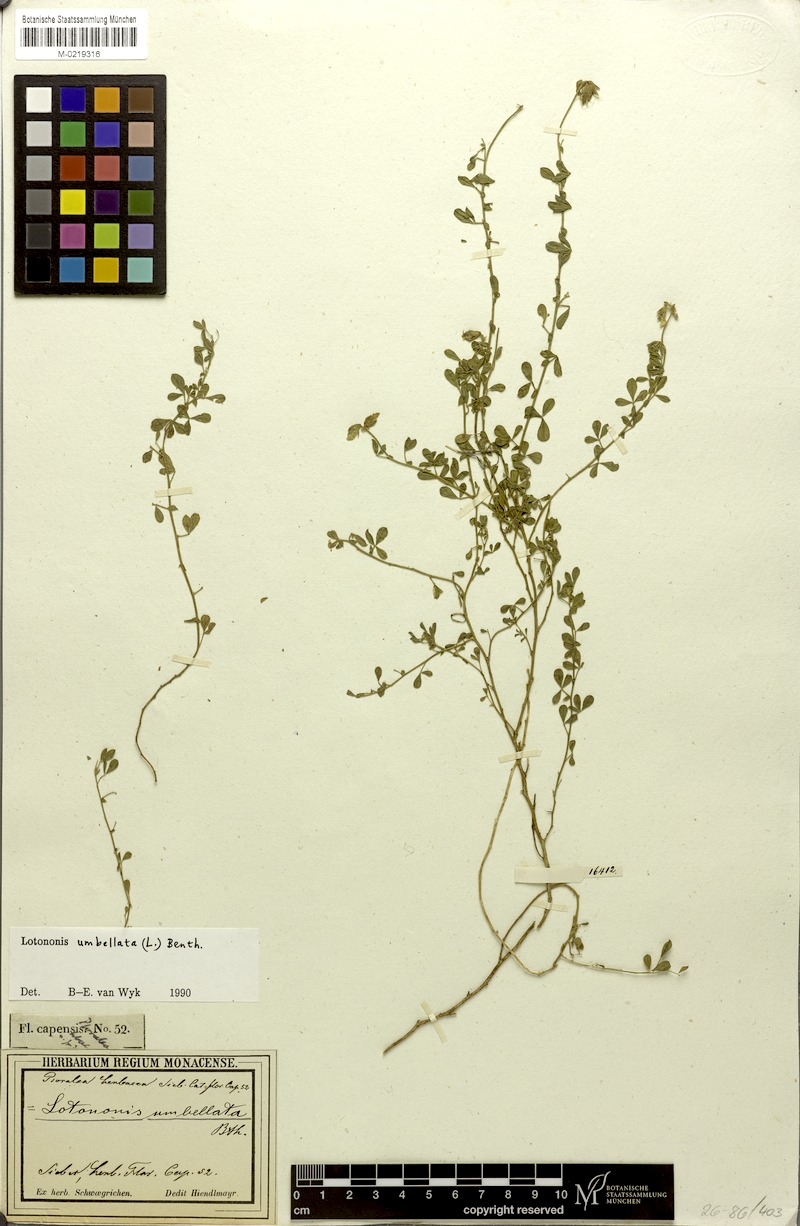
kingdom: Plantae
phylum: Tracheophyta
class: Magnoliopsida
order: Fabales
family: Fabaceae
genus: Lotononis
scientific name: Lotononis umbellata
